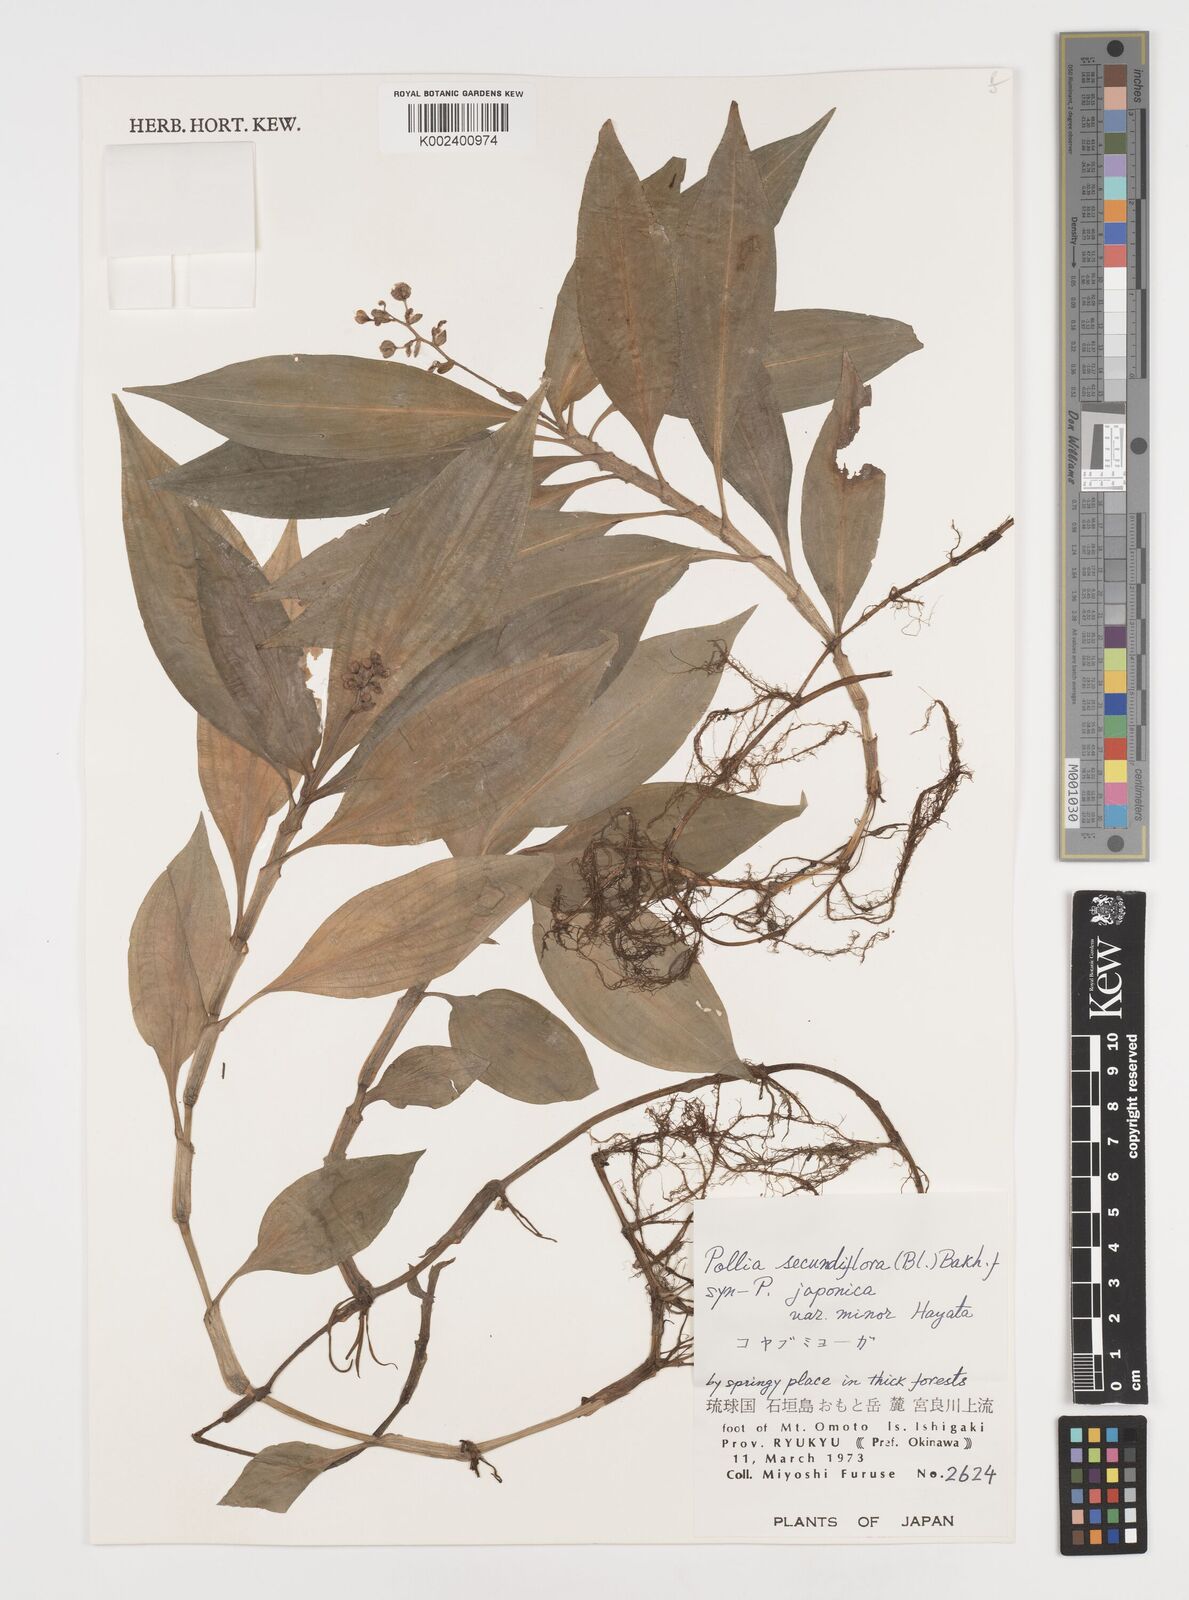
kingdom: Plantae
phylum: Tracheophyta
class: Liliopsida
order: Commelinales
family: Commelinaceae
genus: Pollia
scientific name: Pollia secundiflora
